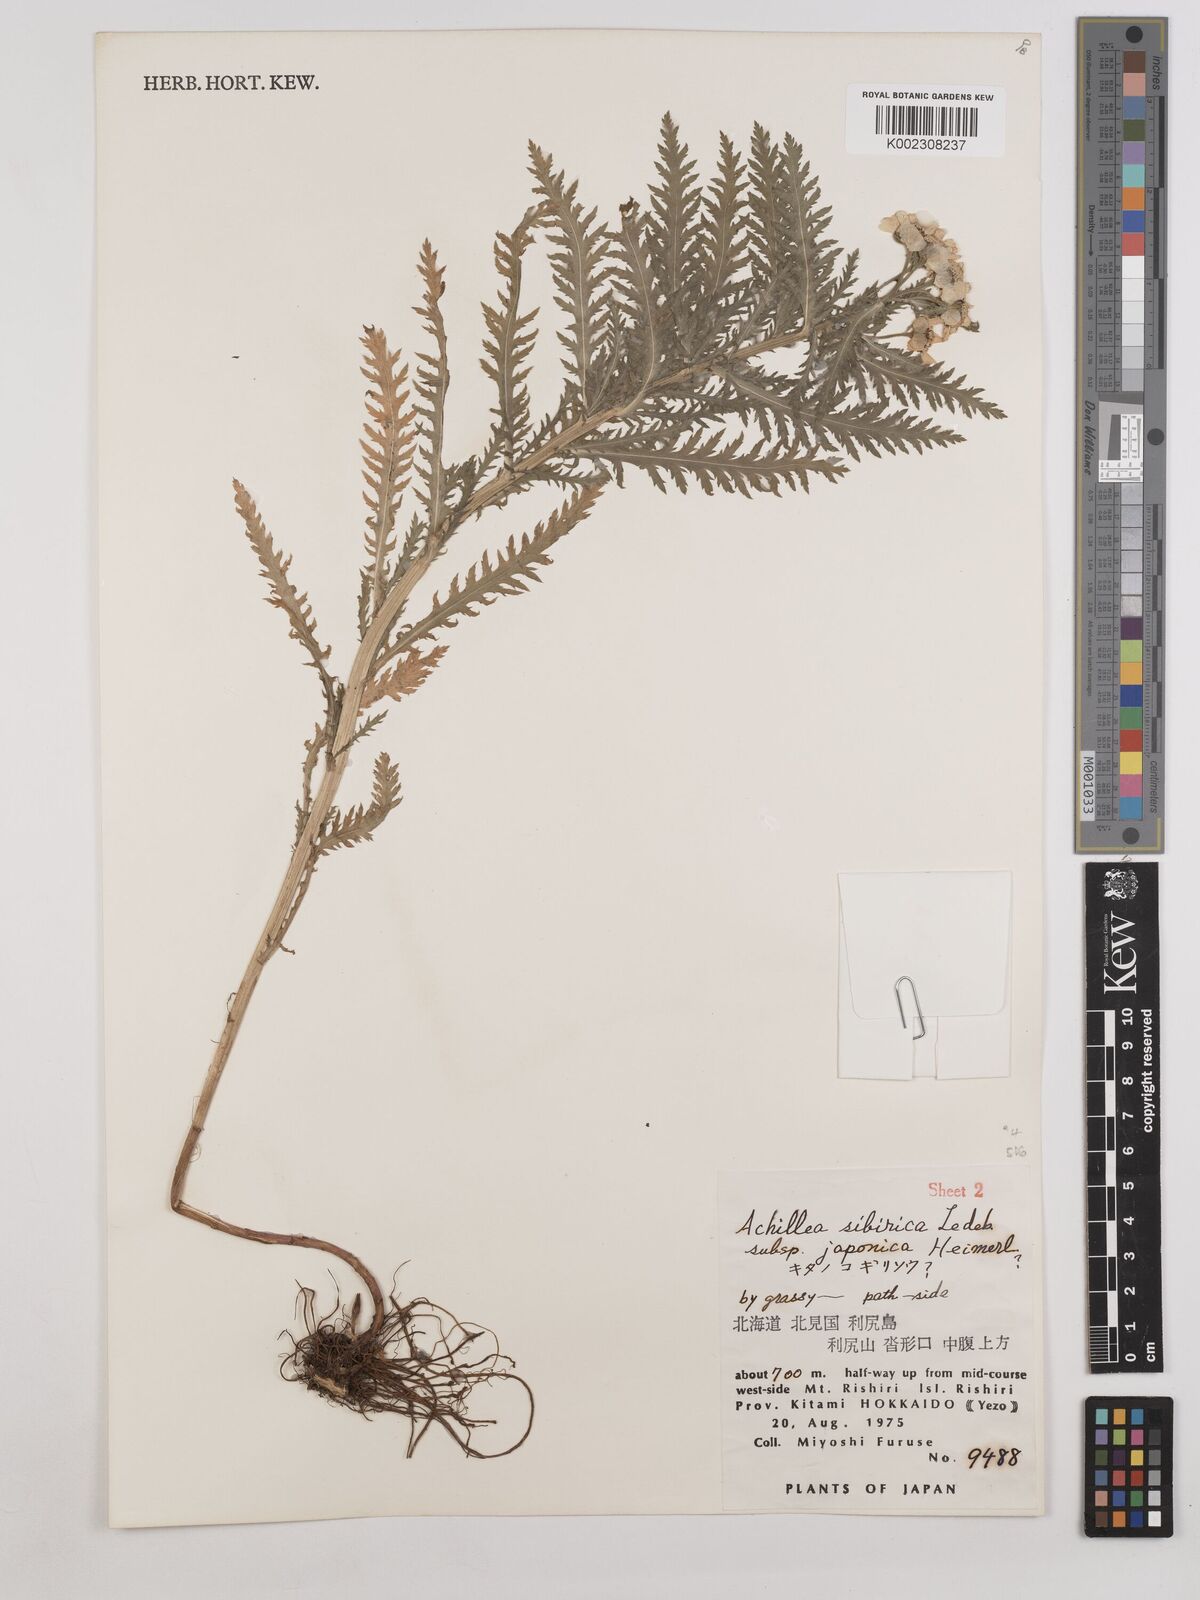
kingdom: Plantae
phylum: Tracheophyta
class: Magnoliopsida
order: Asterales
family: Asteraceae
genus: Achillea
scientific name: Achillea alpina
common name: Siberian yarrow
